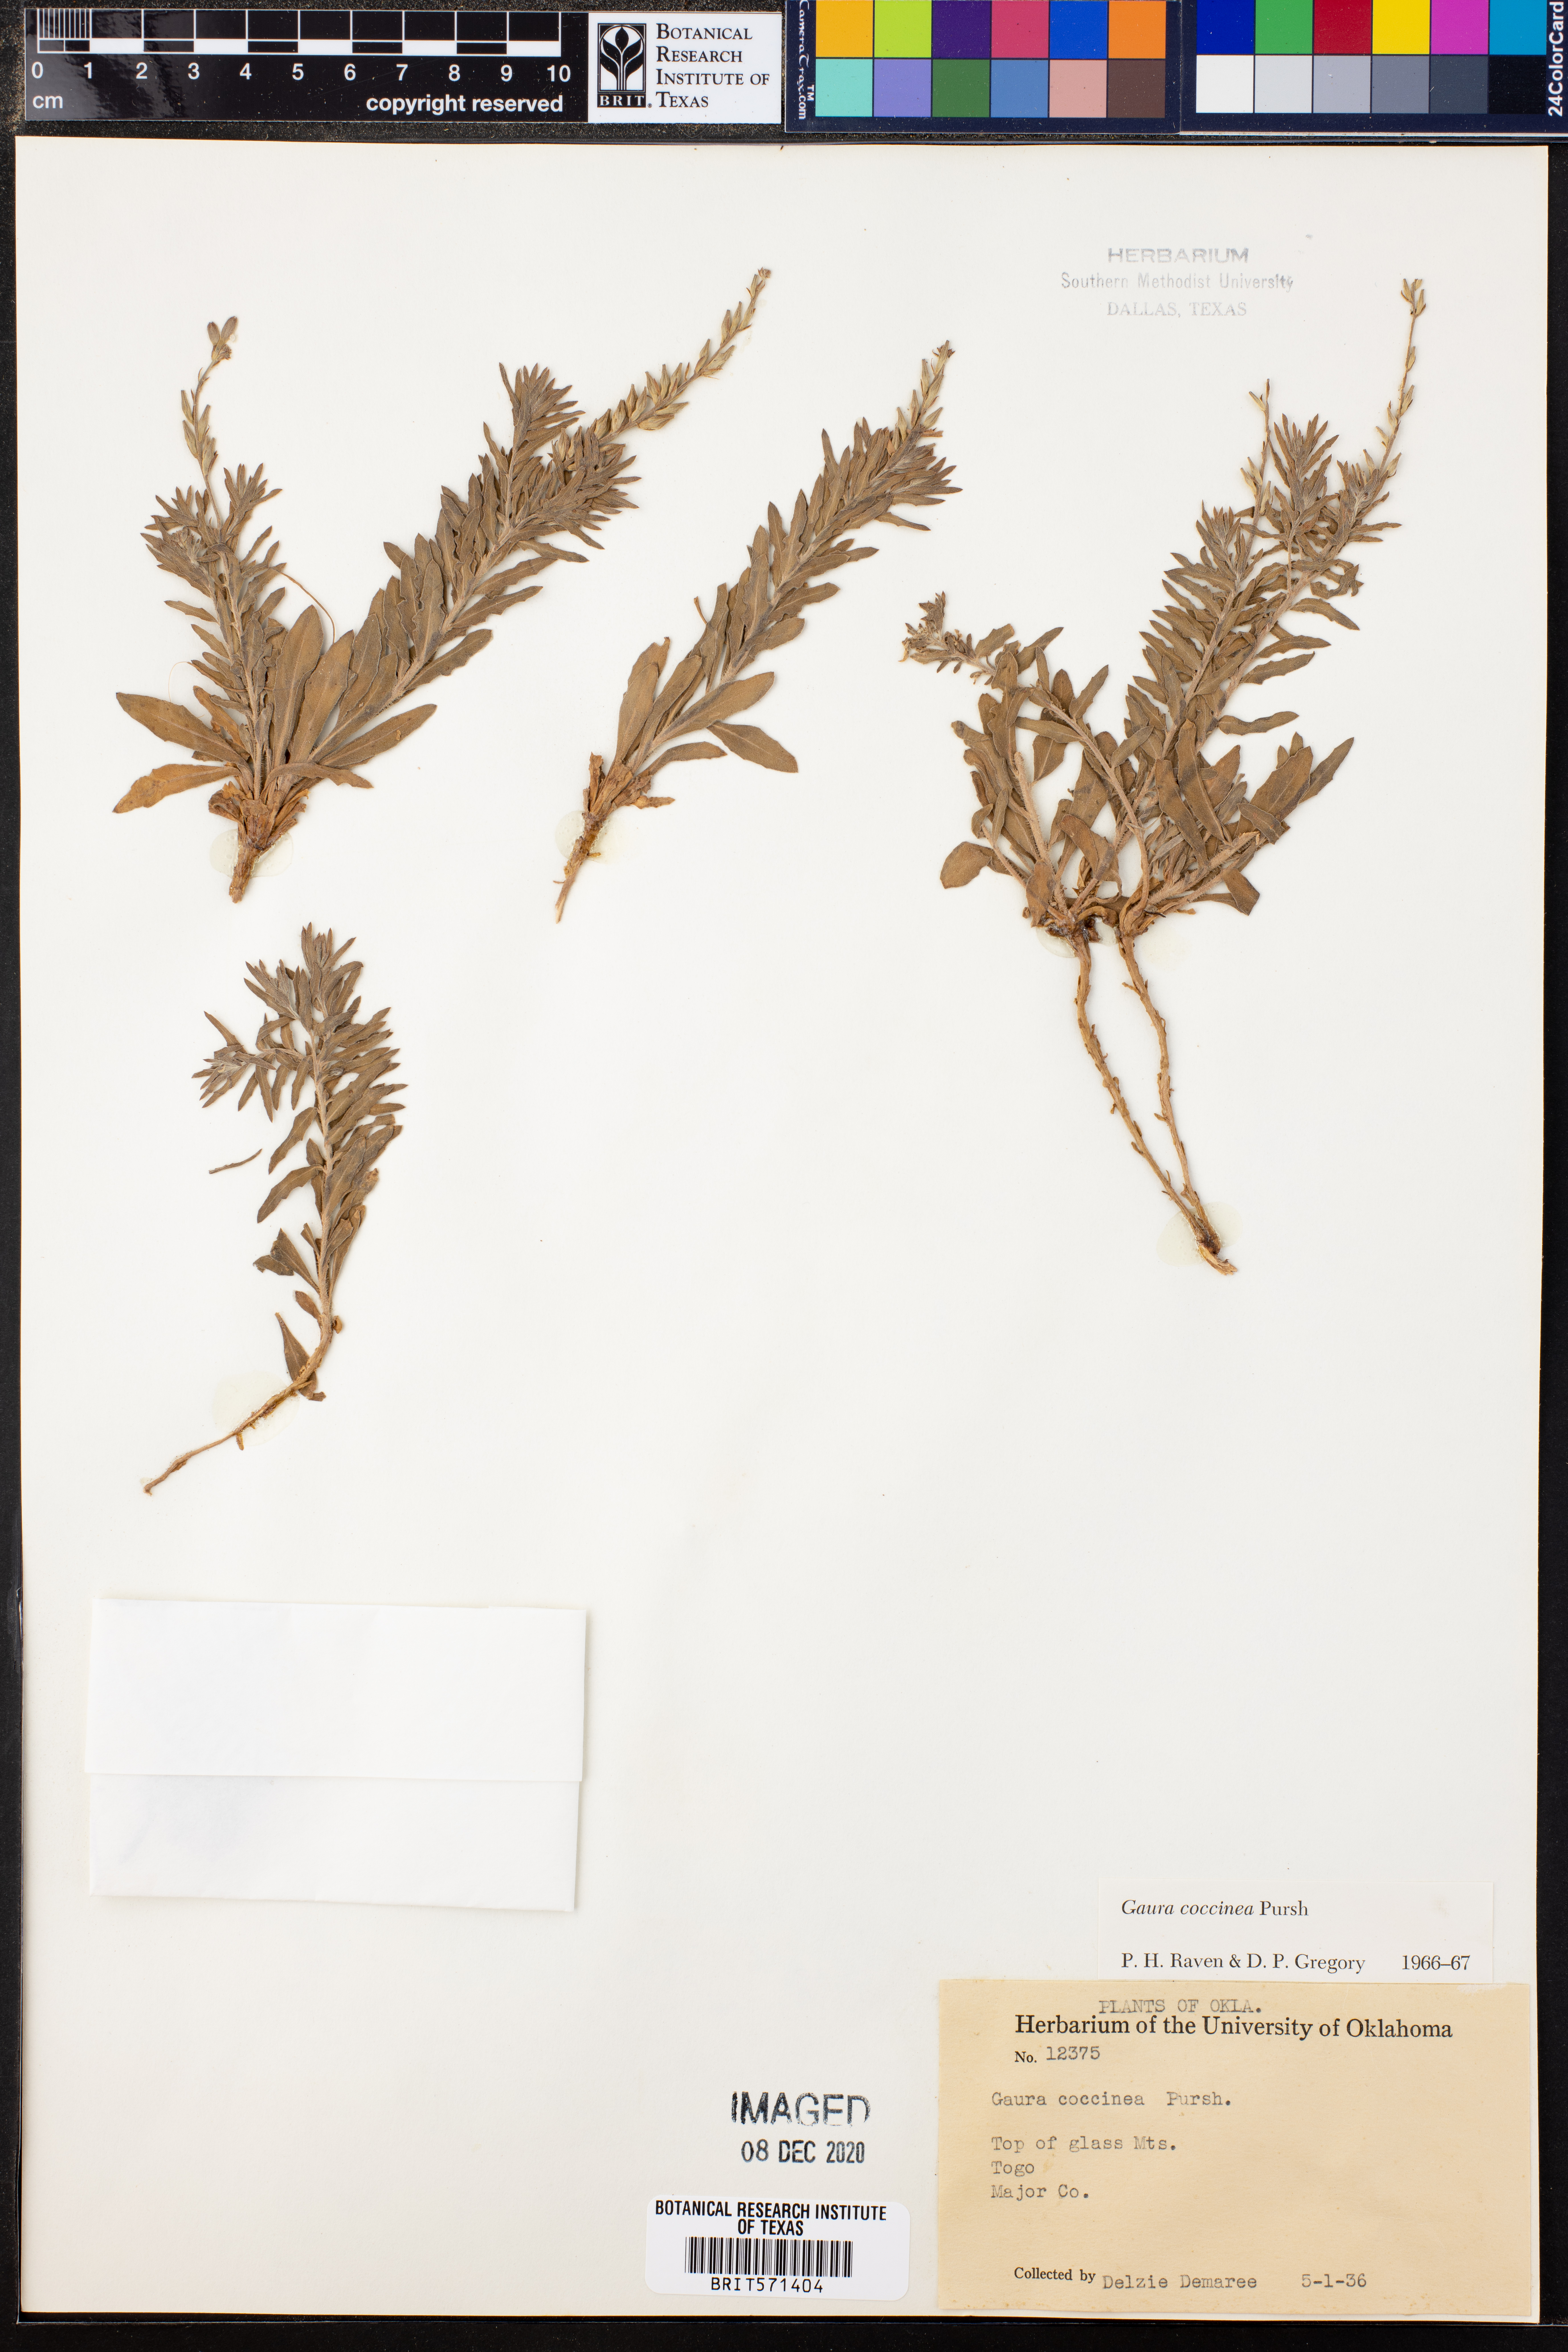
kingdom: Plantae
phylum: Tracheophyta
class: Magnoliopsida
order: Myrtales
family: Onagraceae
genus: Oenothera
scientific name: Oenothera suffrutescens
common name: Scarlet beeblossom
